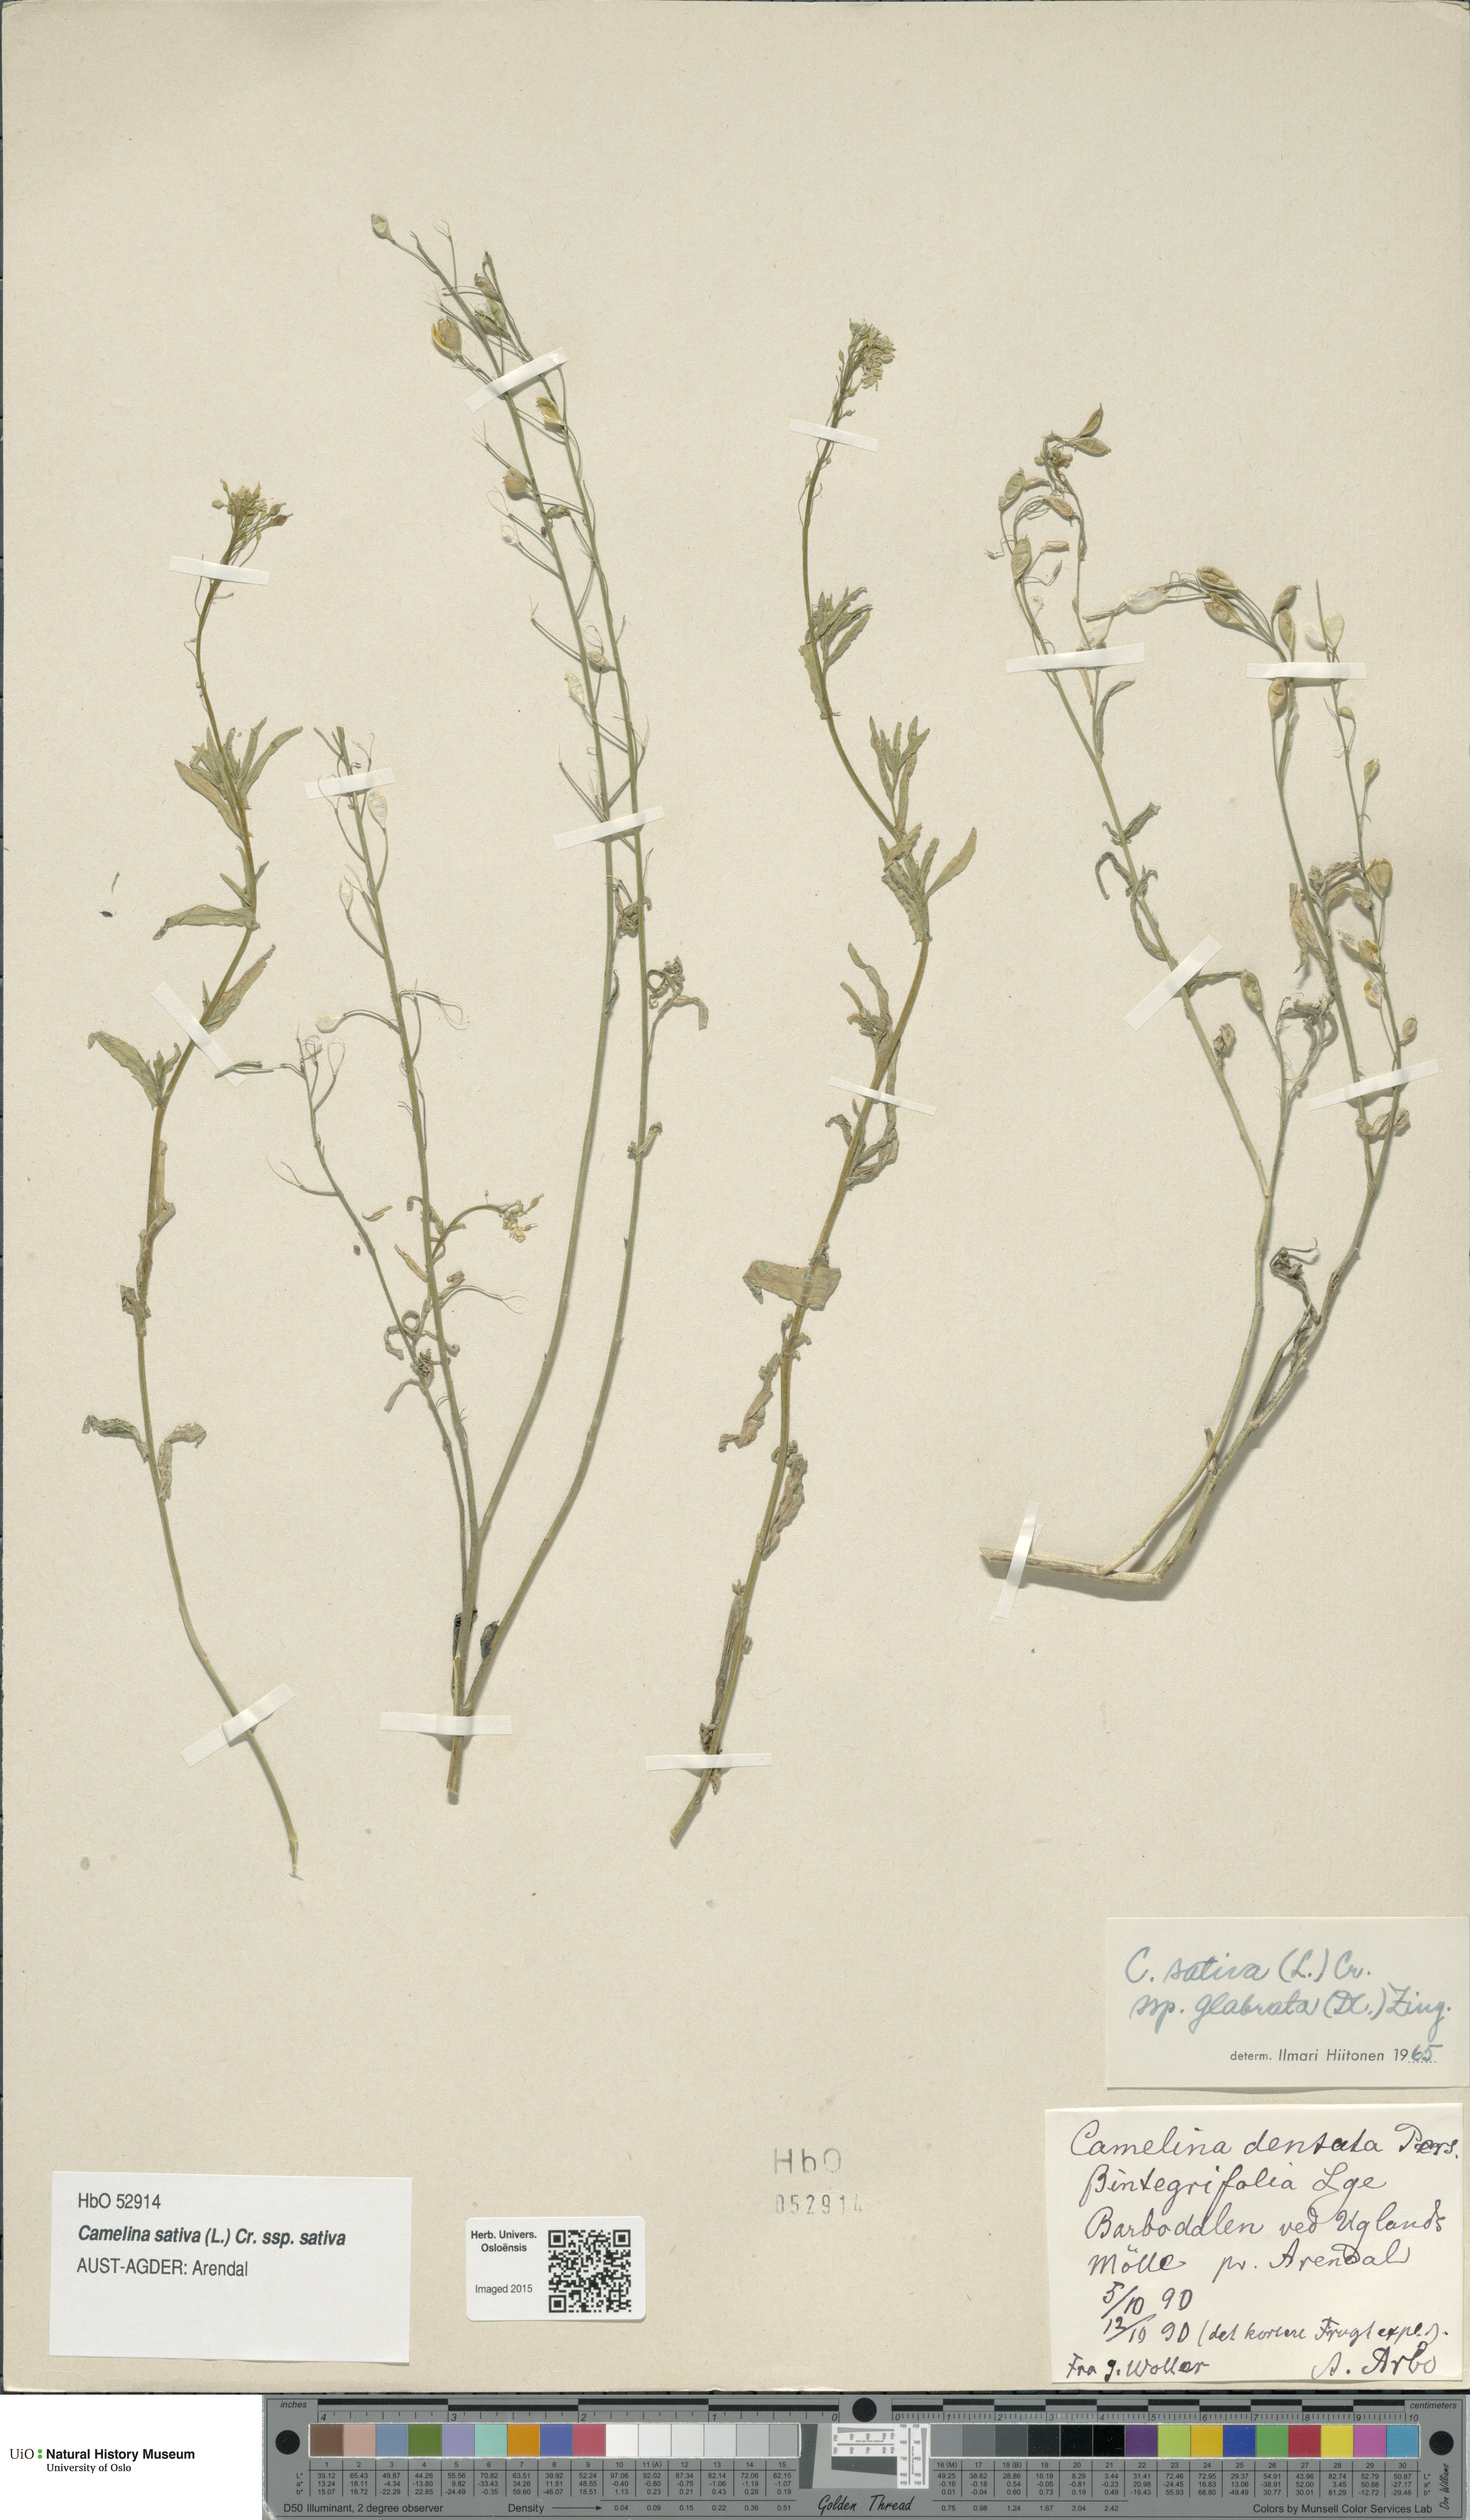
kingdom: Plantae
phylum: Tracheophyta
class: Magnoliopsida
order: Brassicales
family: Brassicaceae
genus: Camelina
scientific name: Camelina sativa
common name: Gold-of-pleasure
